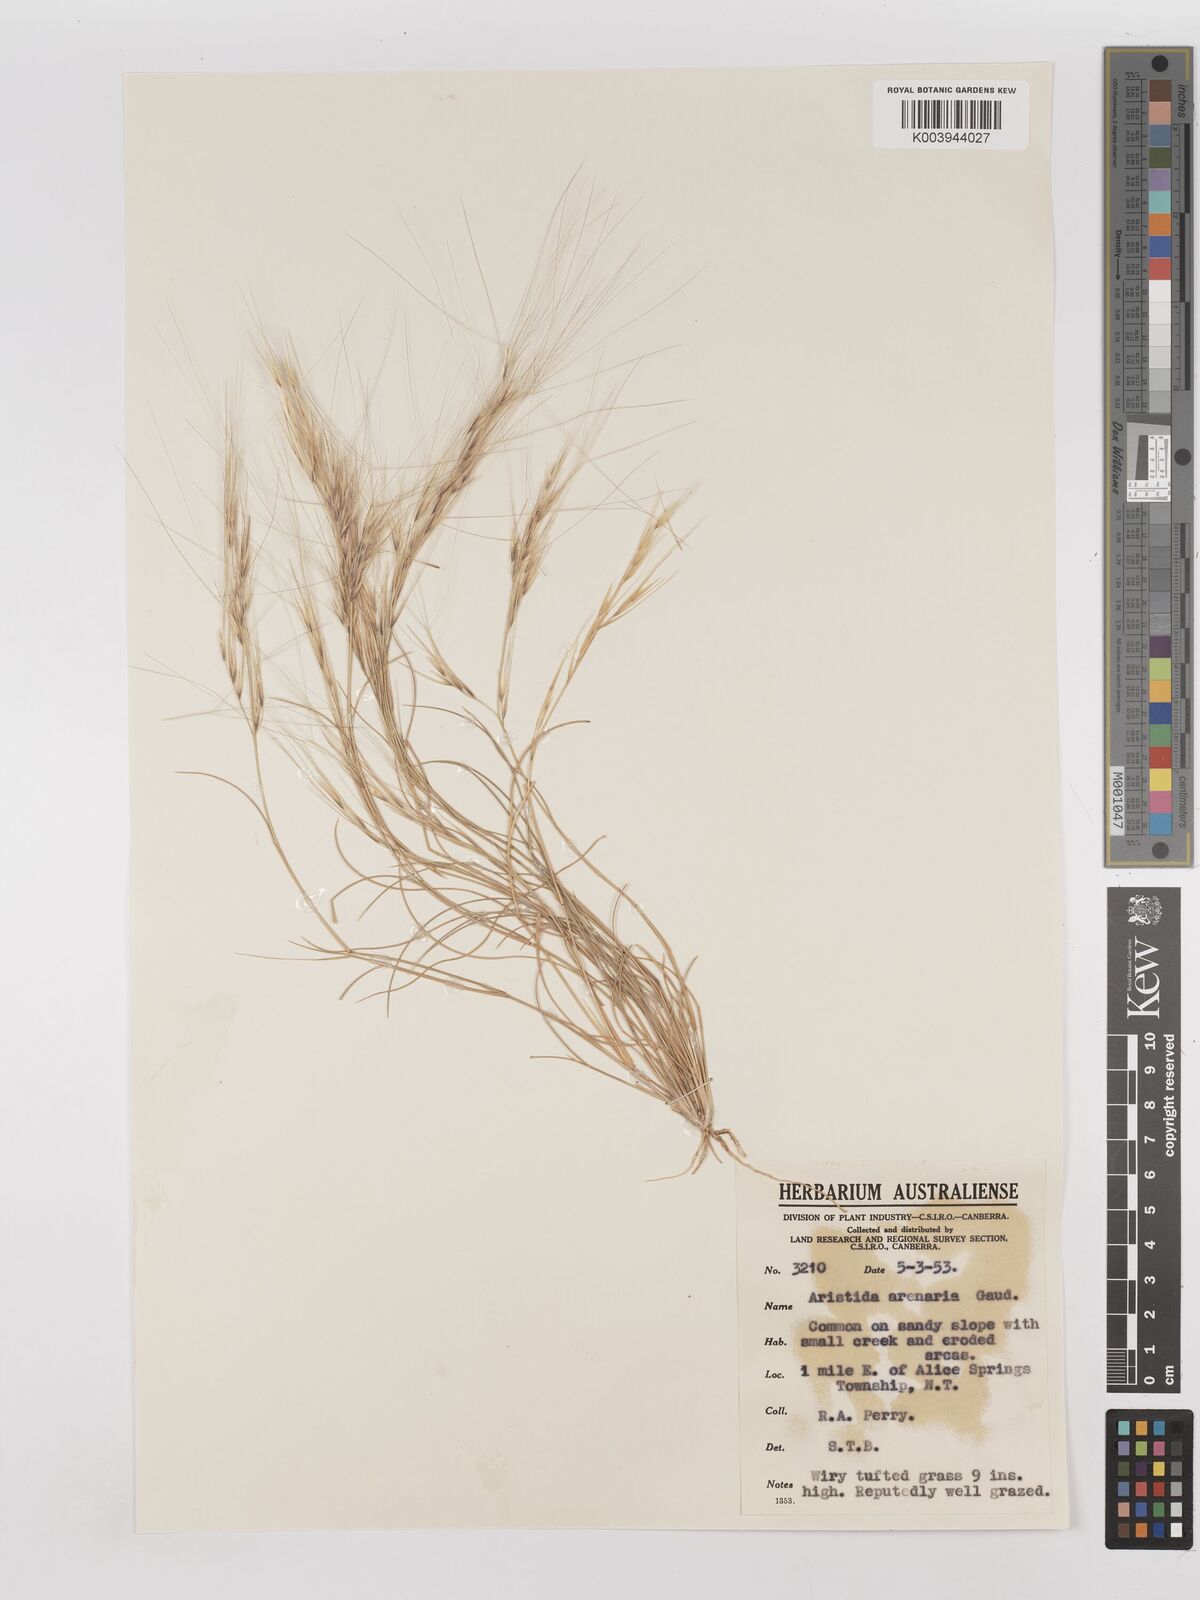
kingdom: Plantae
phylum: Tracheophyta
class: Liliopsida
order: Poales
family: Poaceae
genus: Aristida
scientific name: Aristida contorta
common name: Bunch kerosene grass
